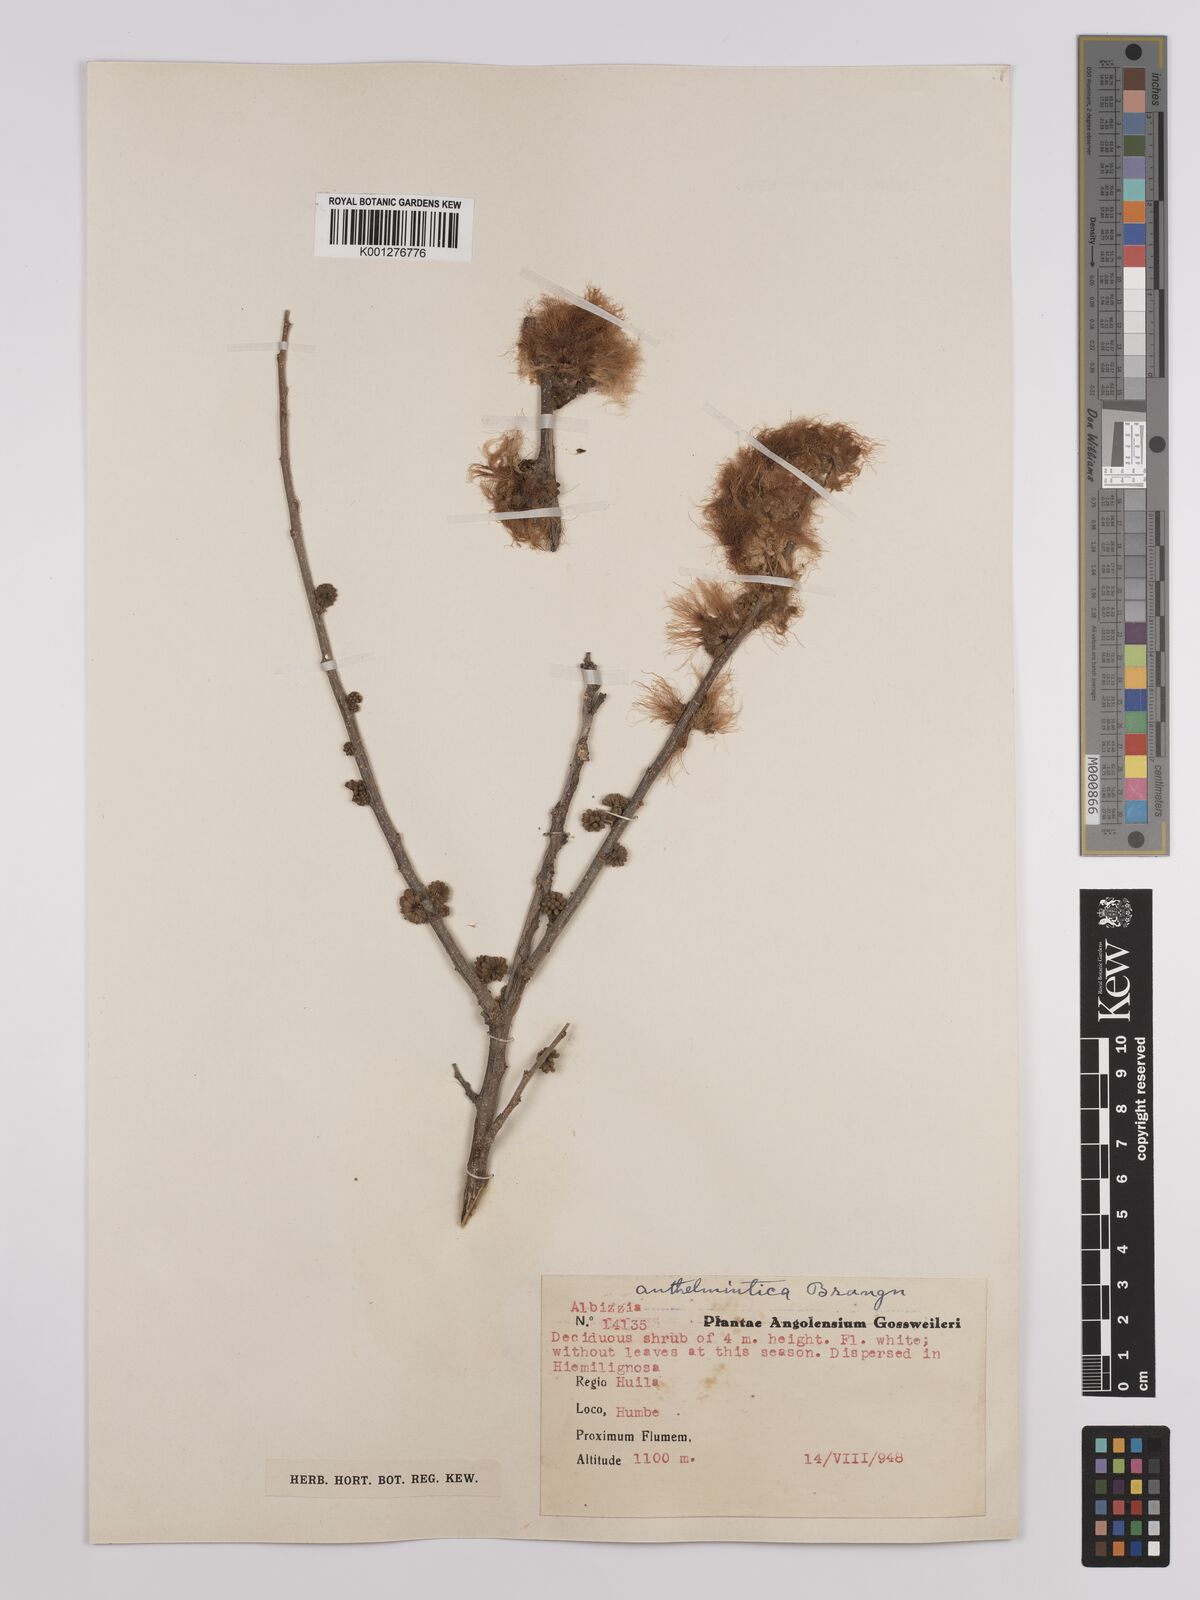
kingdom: Plantae
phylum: Tracheophyta
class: Magnoliopsida
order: Fabales
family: Fabaceae
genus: Albizia
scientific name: Albizia anthelmintica
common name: Worm-bark false-thorn
